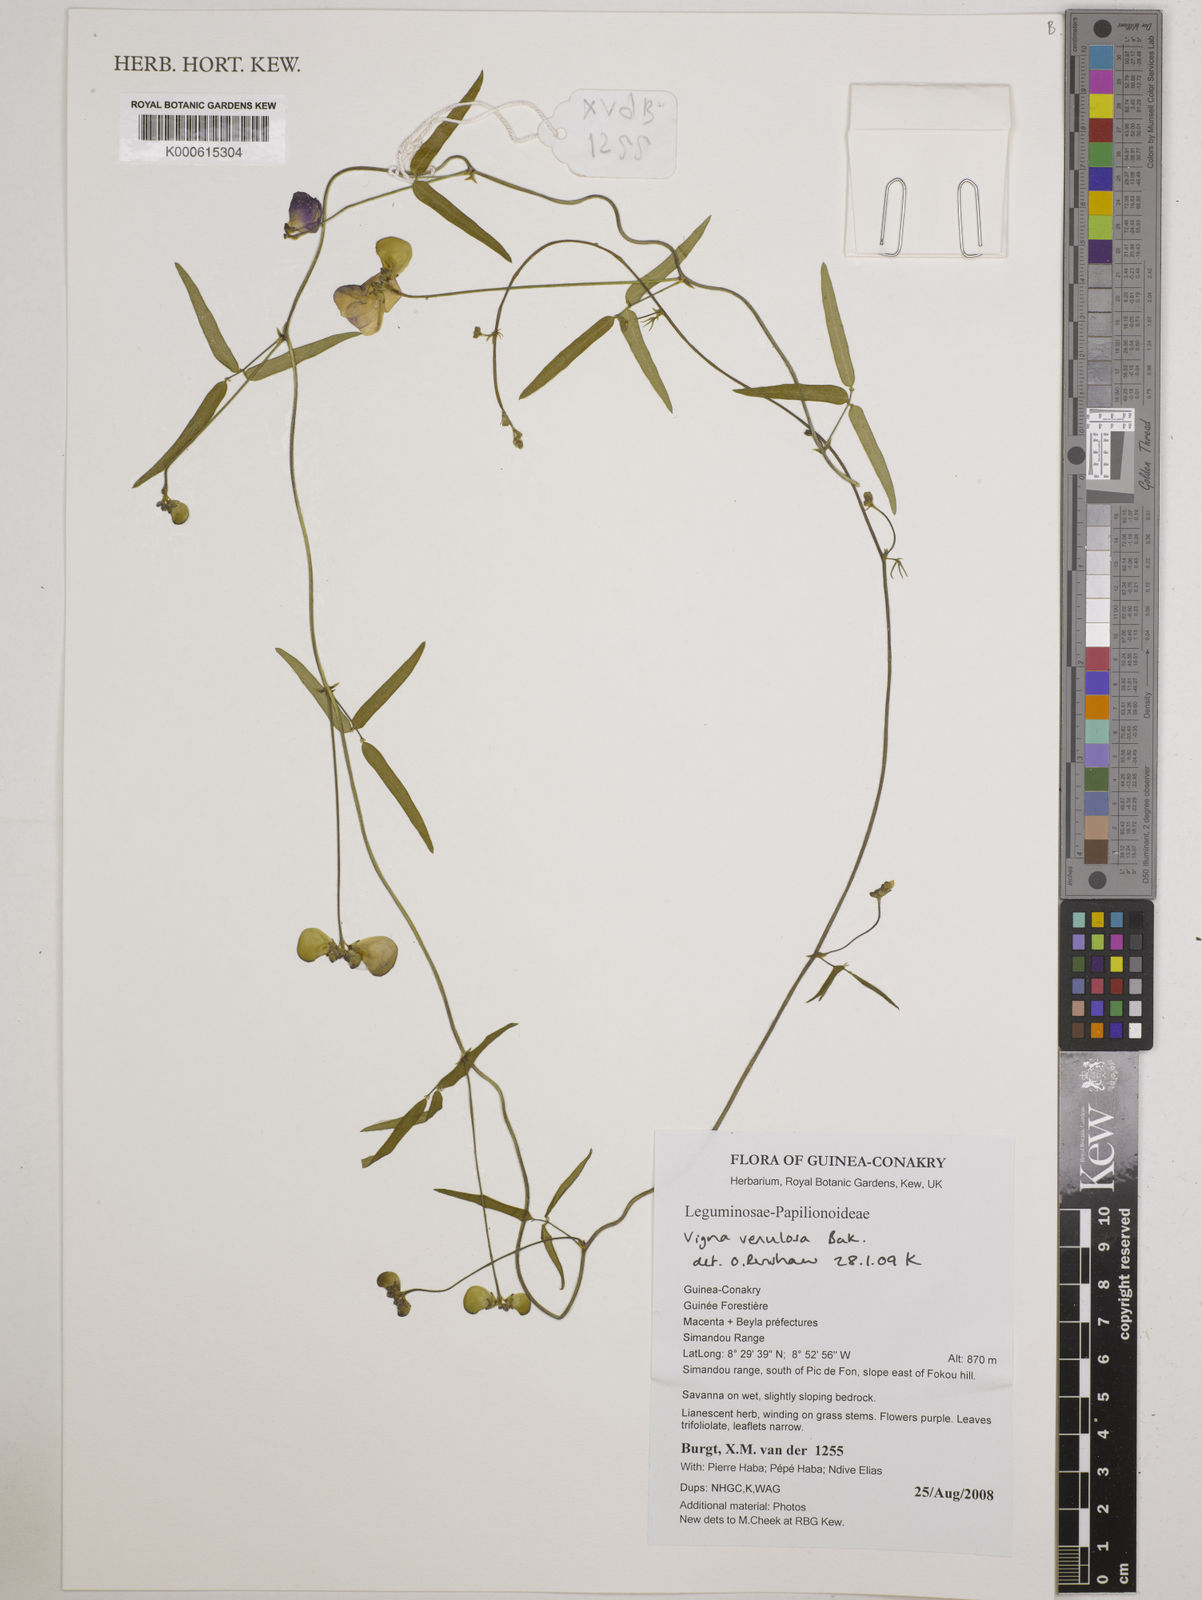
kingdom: Plantae
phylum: Tracheophyta
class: Magnoliopsida
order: Fabales
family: Fabaceae
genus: Vigna
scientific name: Vigna venulosa
